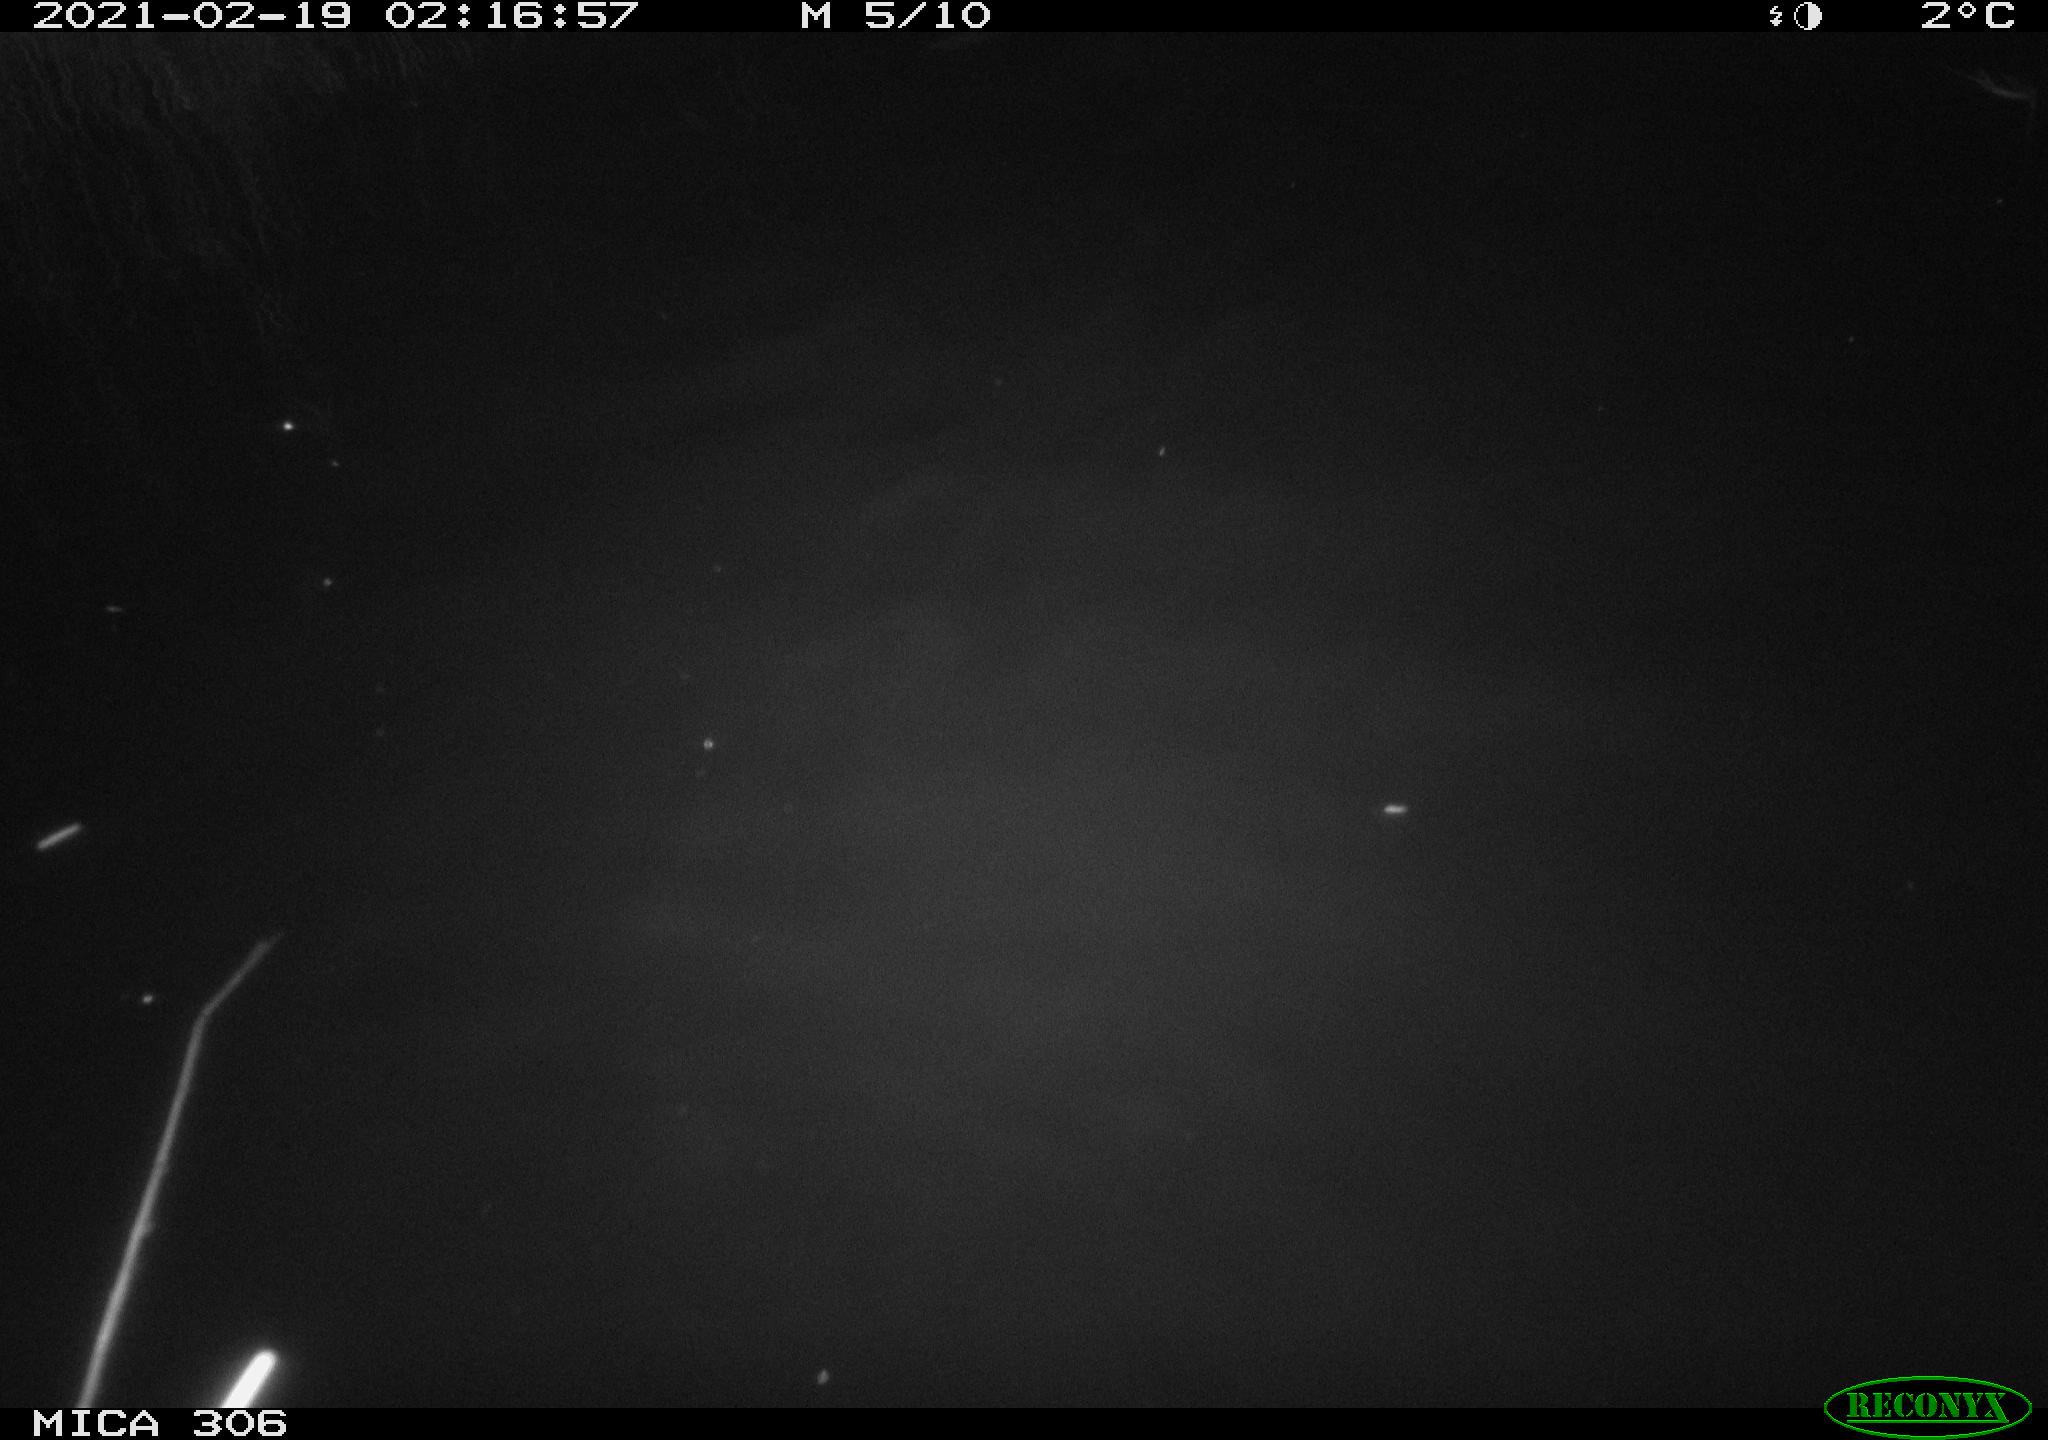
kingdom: Animalia
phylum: Chordata
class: Mammalia
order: Rodentia
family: Cricetidae
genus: Ondatra
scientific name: Ondatra zibethicus
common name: Muskrat
